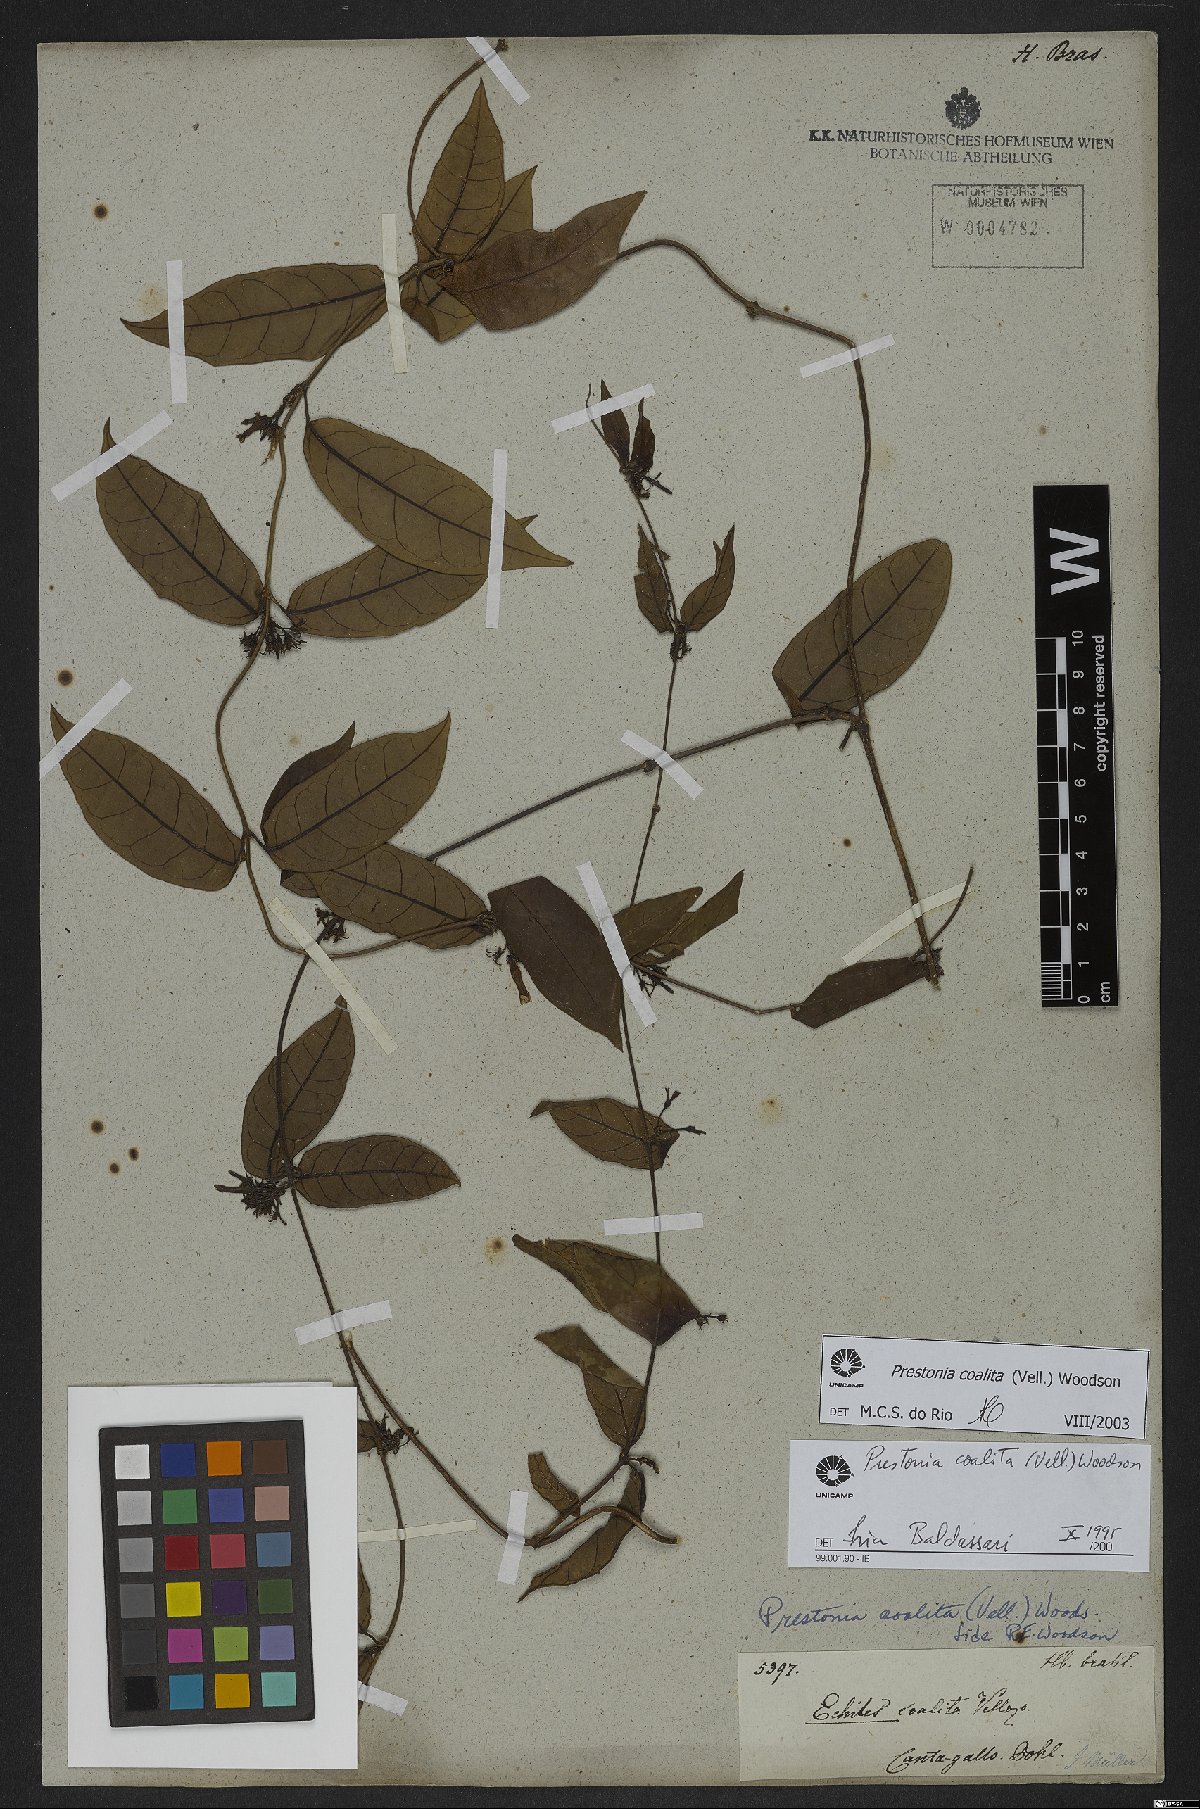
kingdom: Plantae
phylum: Tracheophyta
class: Magnoliopsida
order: Gentianales
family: Apocynaceae
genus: Prestonia
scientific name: Prestonia coalita
